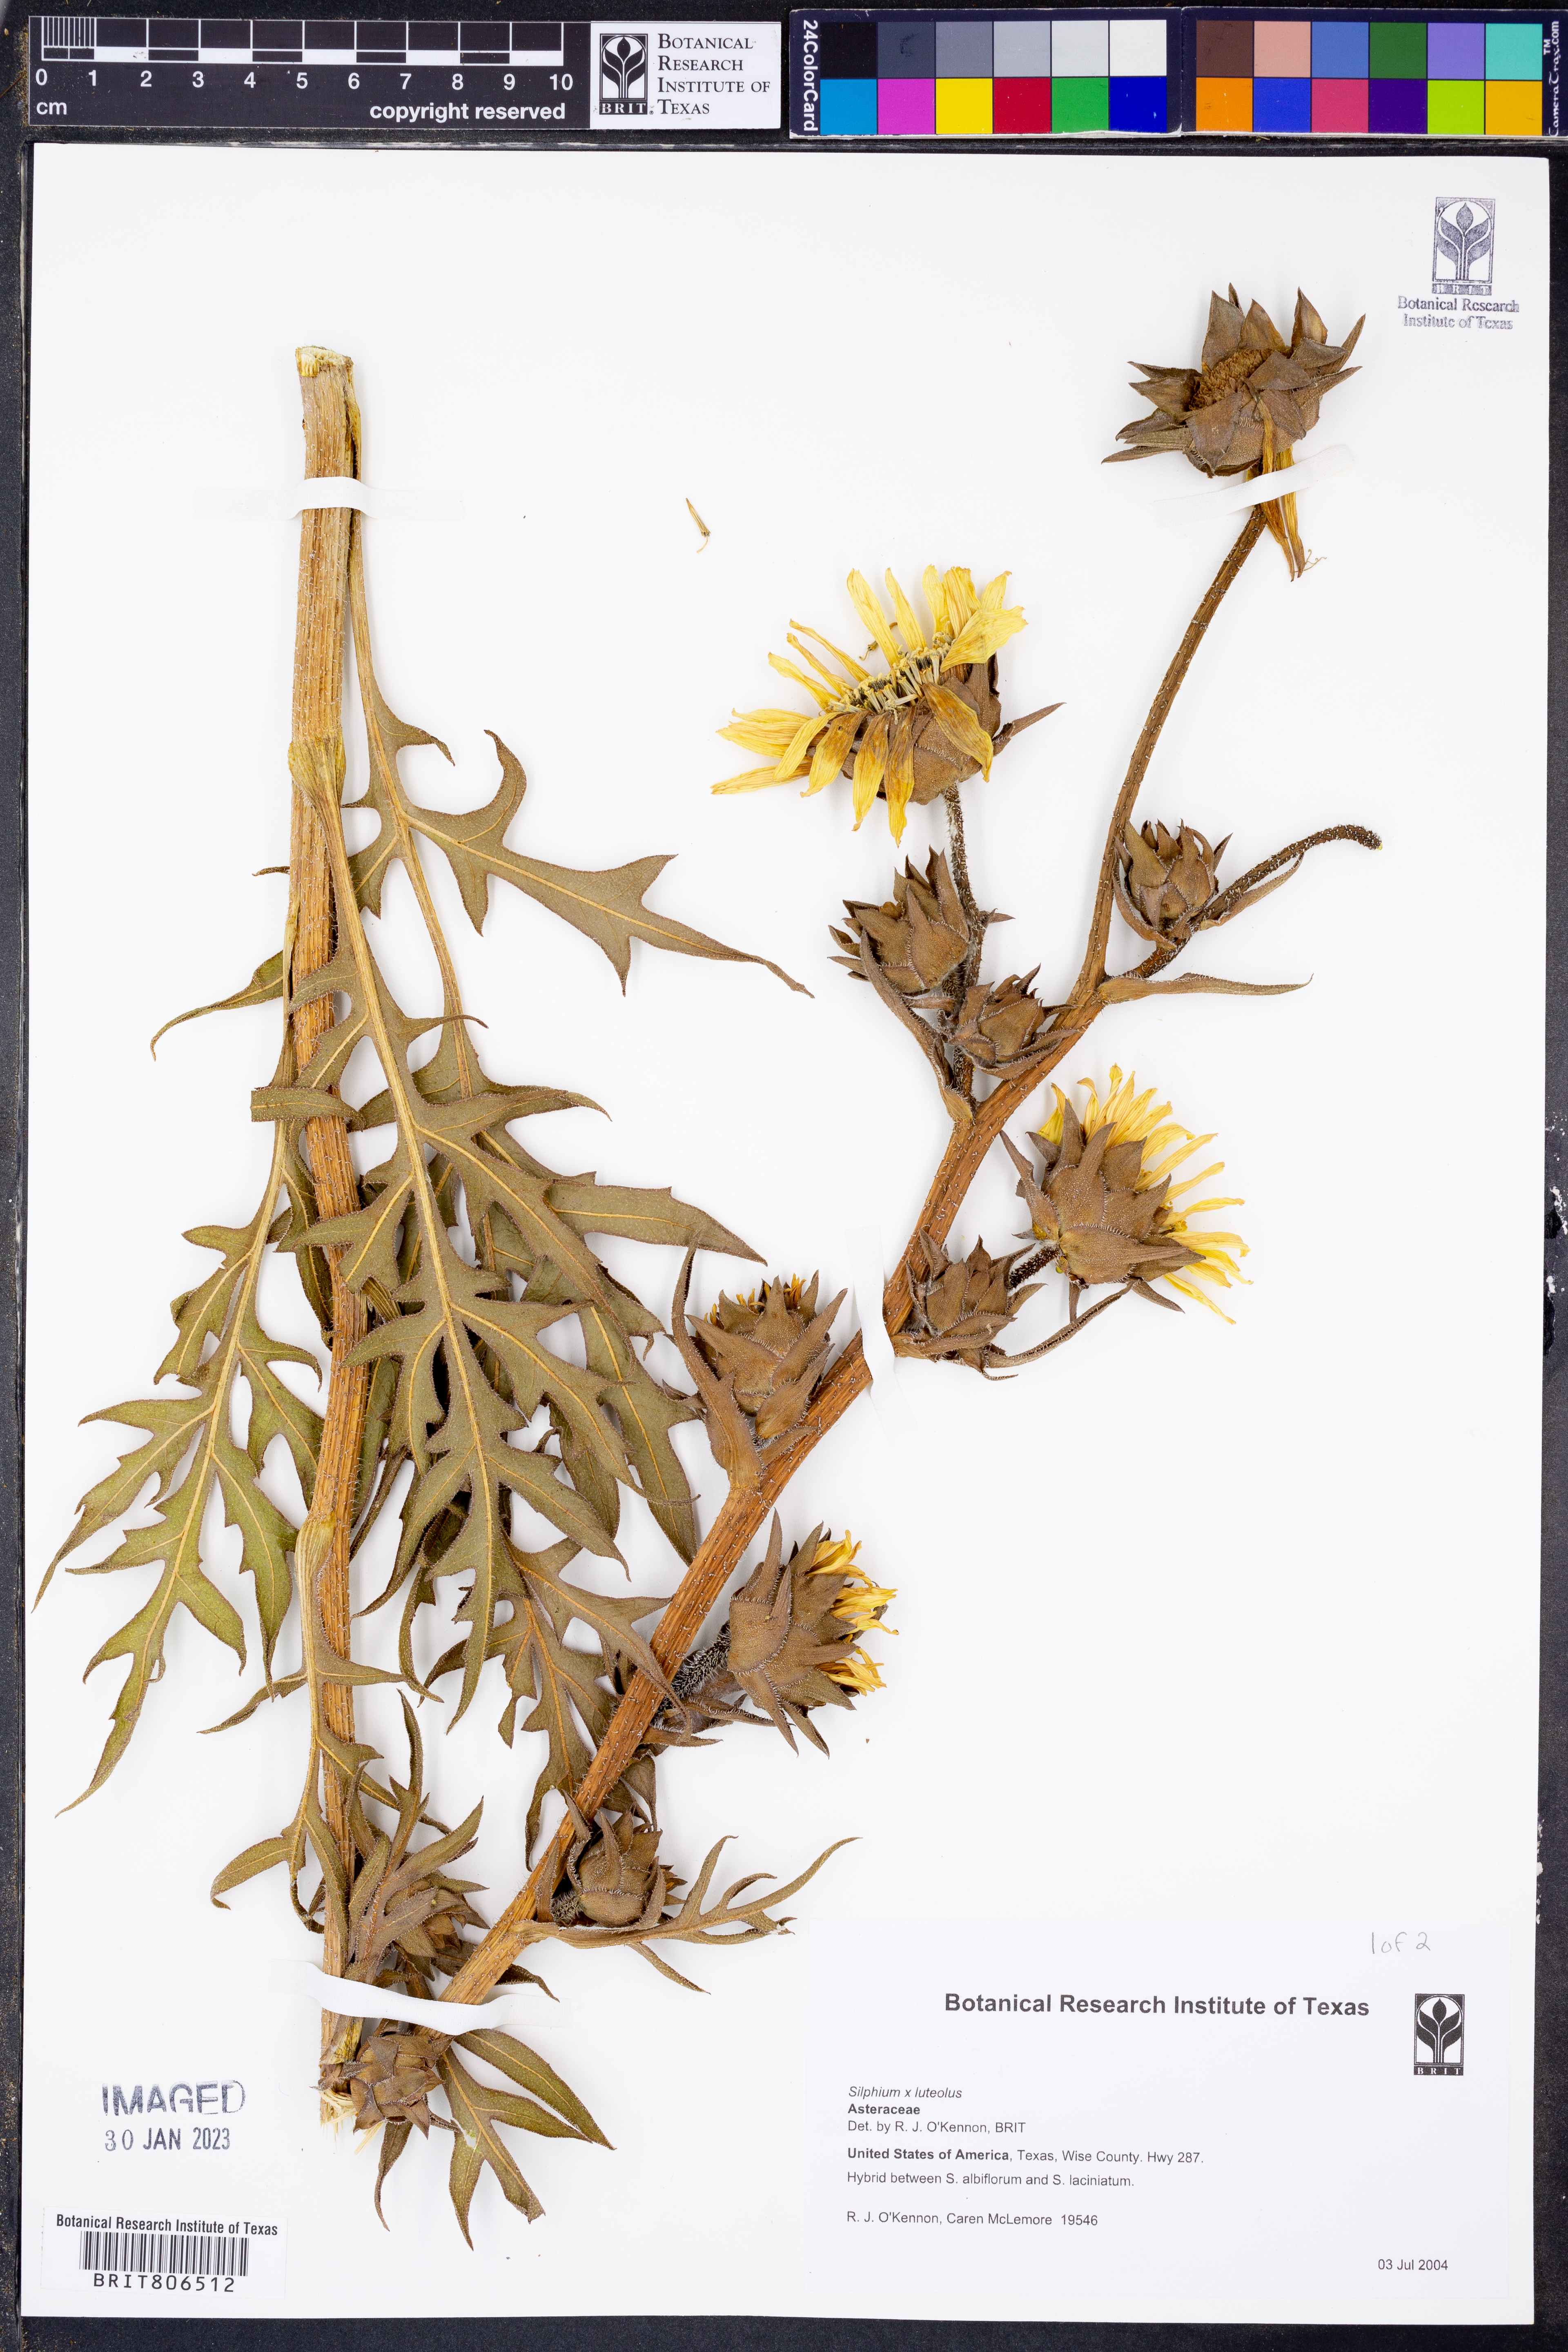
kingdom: Plantae
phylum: Tracheophyta
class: Magnoliopsida
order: Asterales
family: Asteraceae
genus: Silphium
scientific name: Silphium
